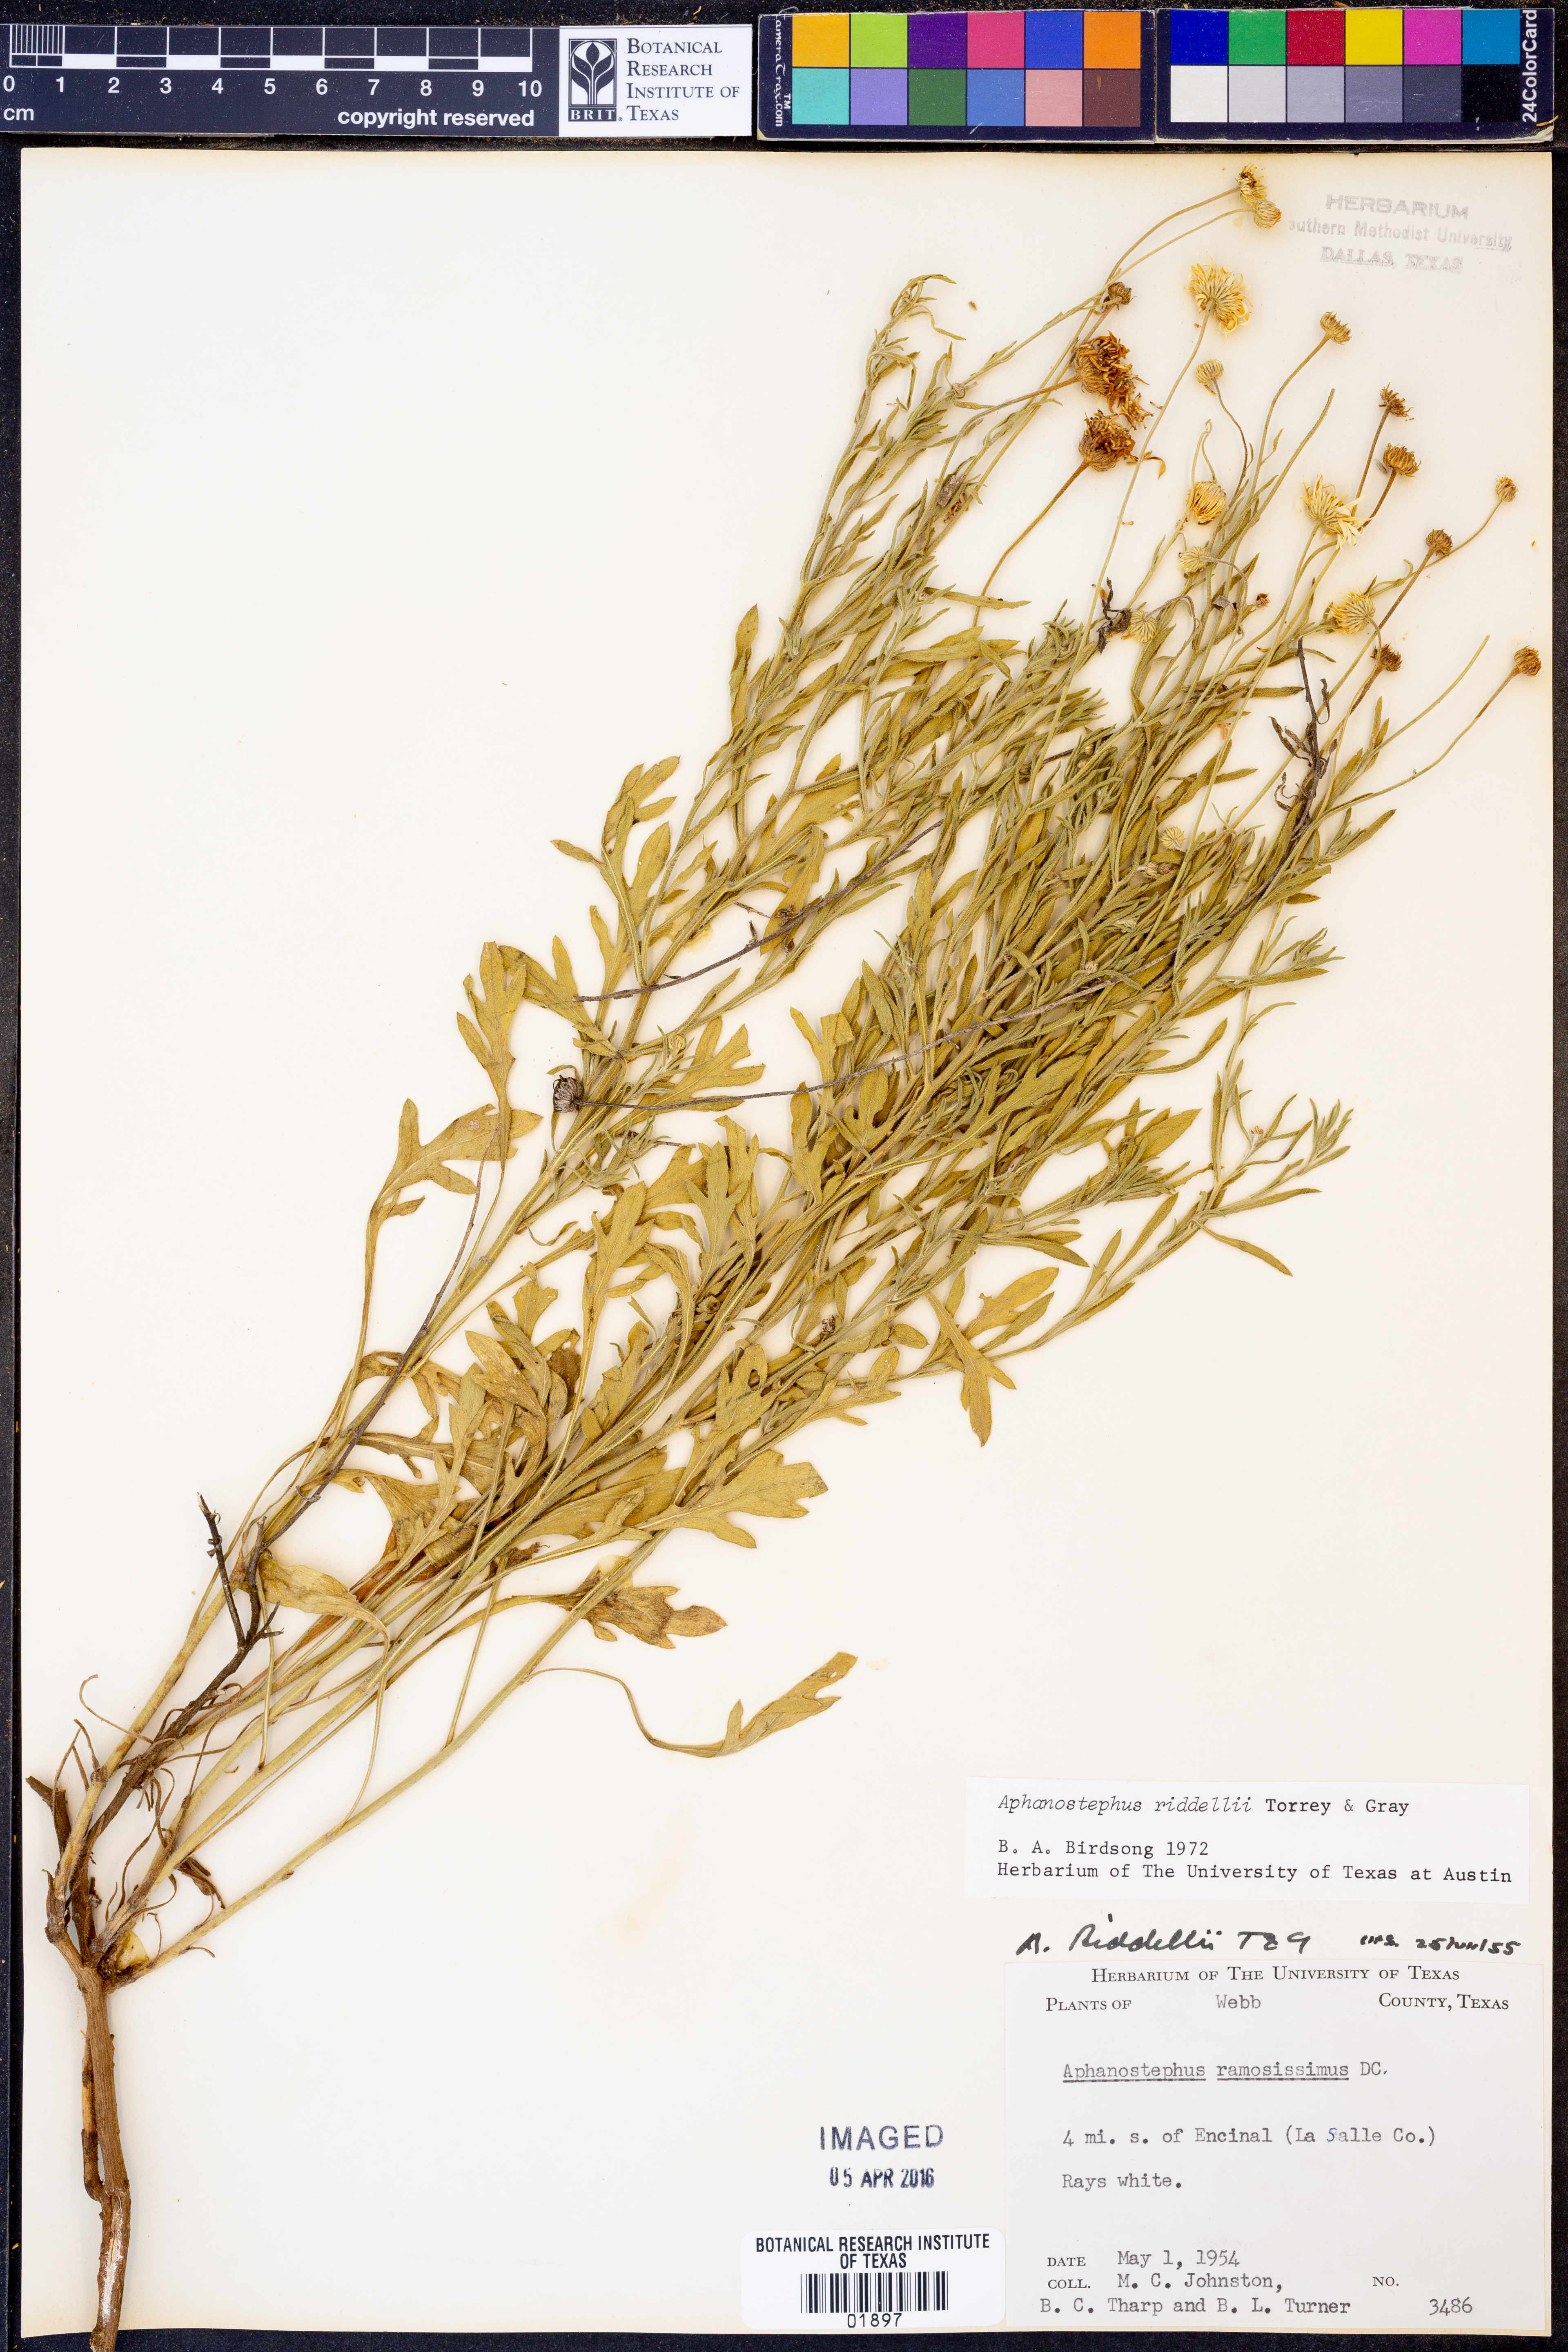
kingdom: Plantae
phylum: Tracheophyta
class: Magnoliopsida
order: Asterales
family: Asteraceae
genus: Aphanostephus
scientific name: Aphanostephus riddellii
